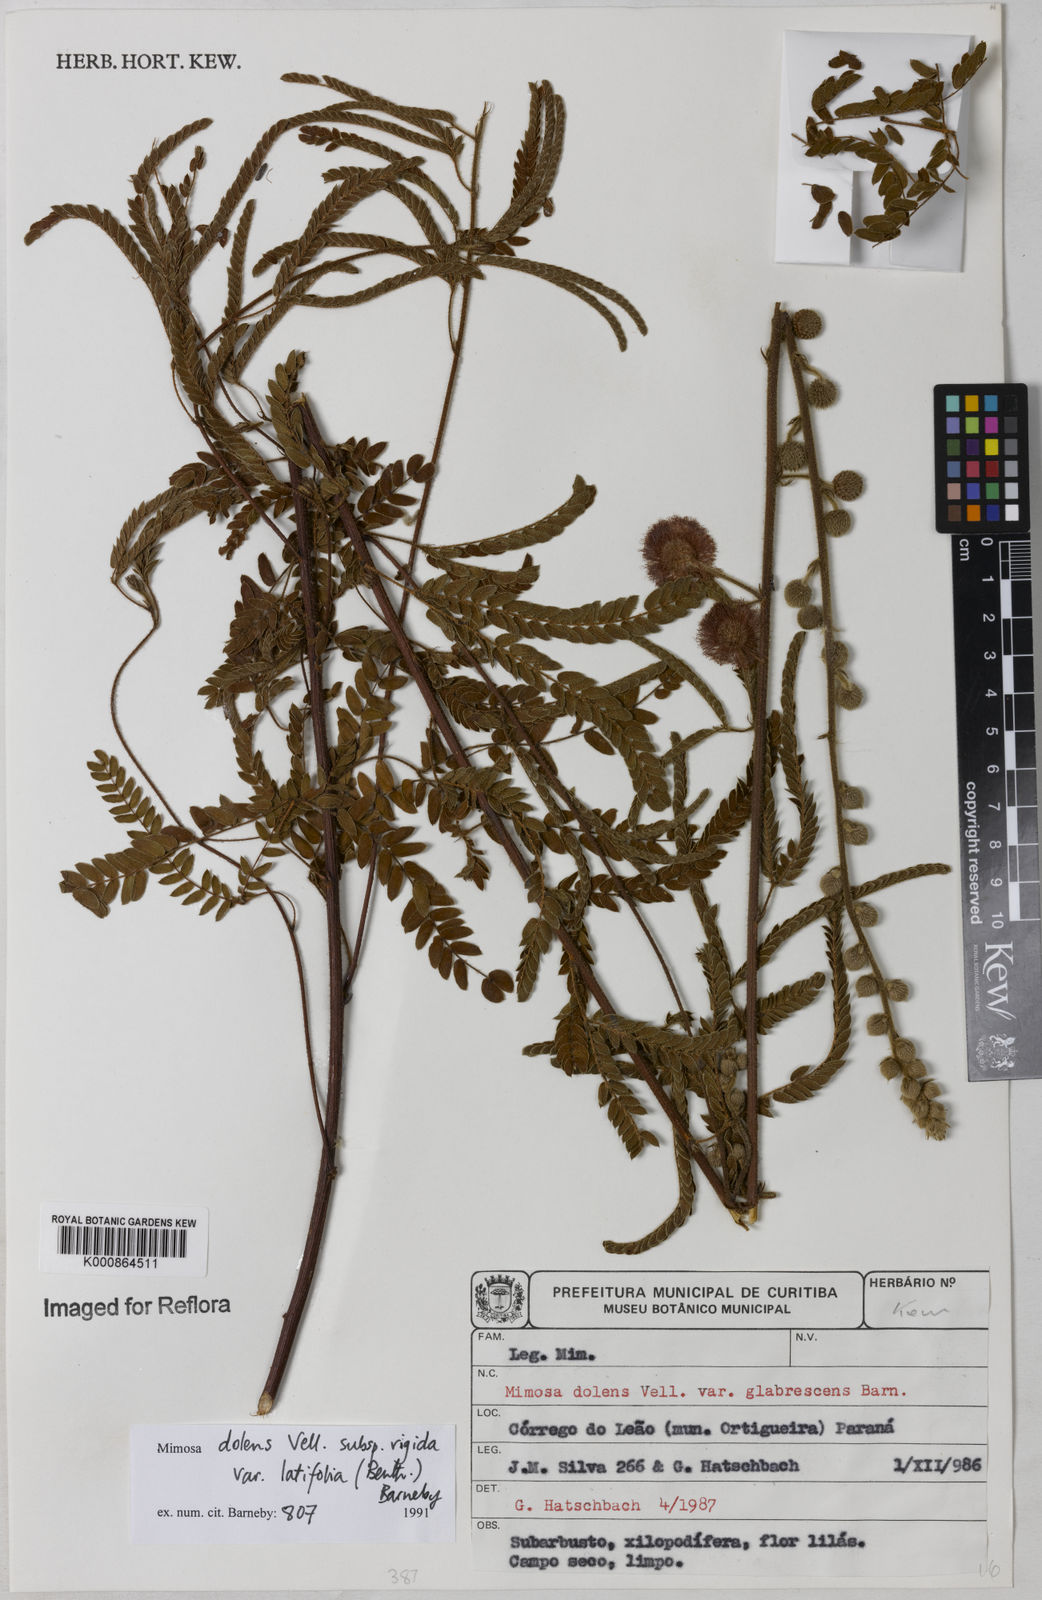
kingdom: Plantae
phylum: Tracheophyta
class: Magnoliopsida
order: Fabales
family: Fabaceae
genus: Mimosa
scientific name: Mimosa dolens
